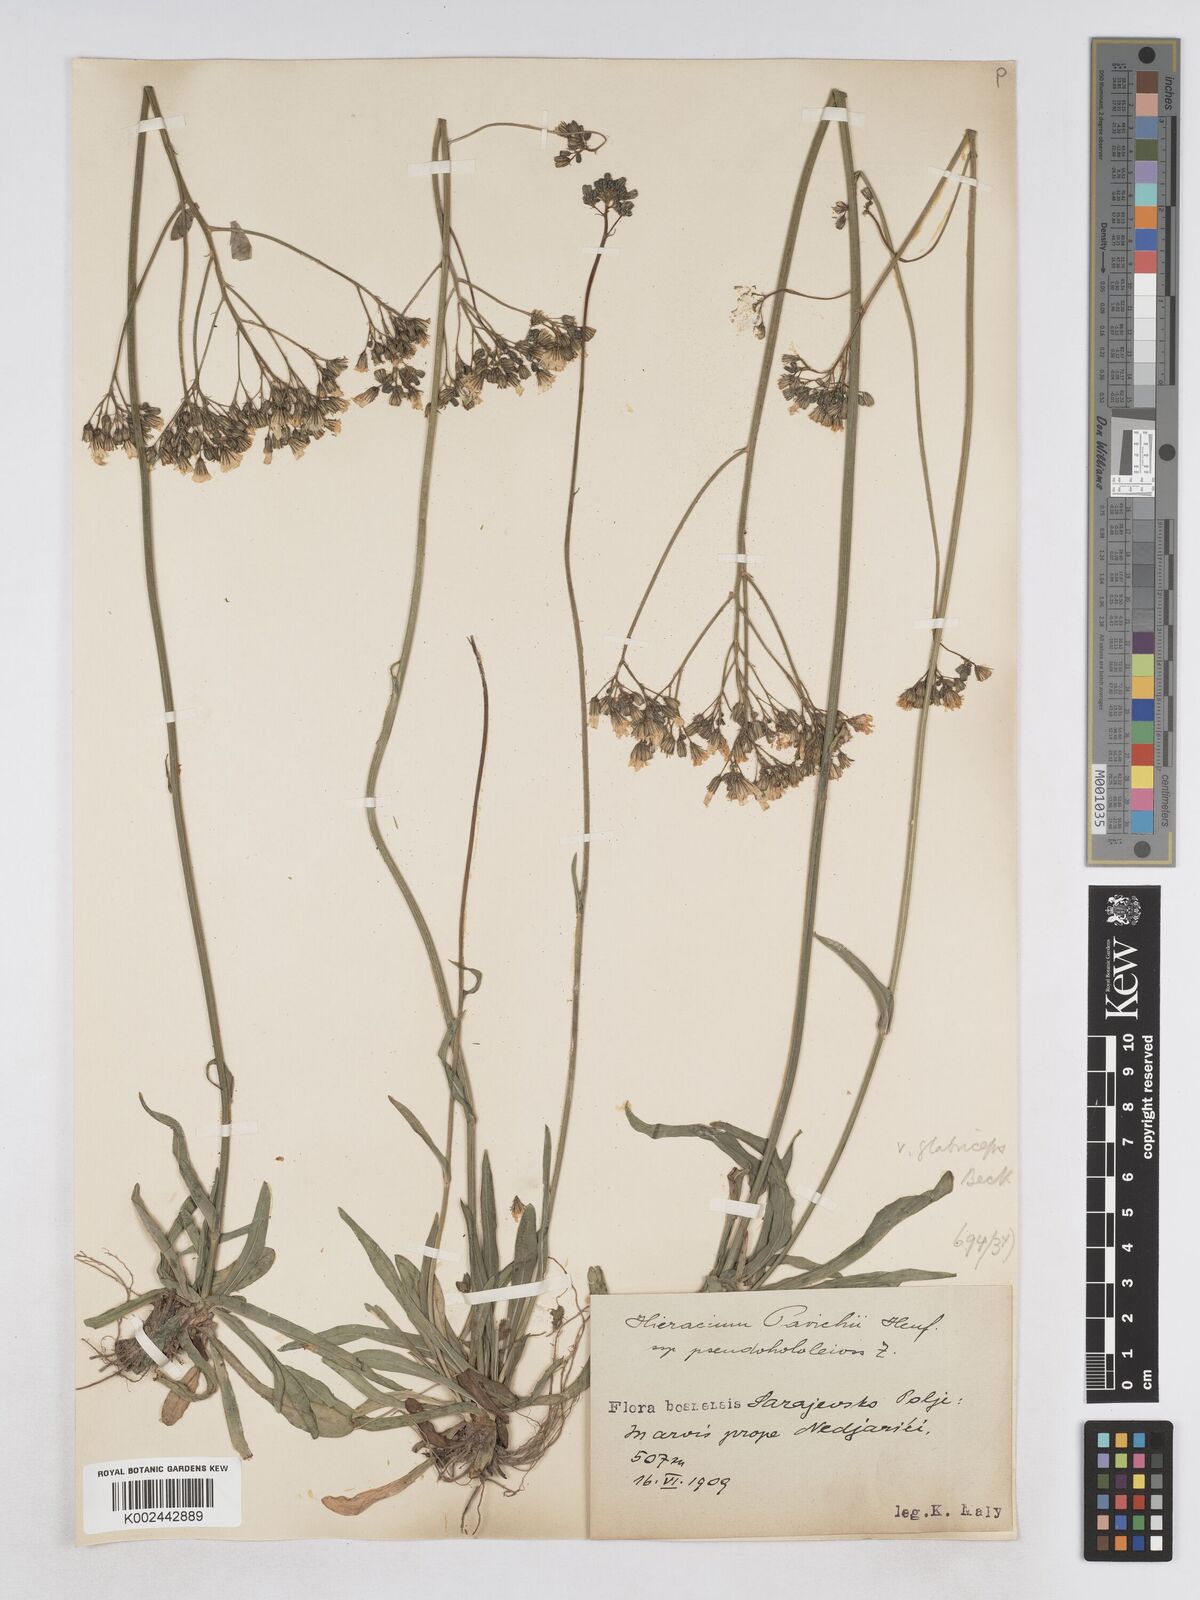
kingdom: Plantae
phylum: Tracheophyta
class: Magnoliopsida
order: Asterales
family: Asteraceae
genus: Pilosella
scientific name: Pilosella pavichii
